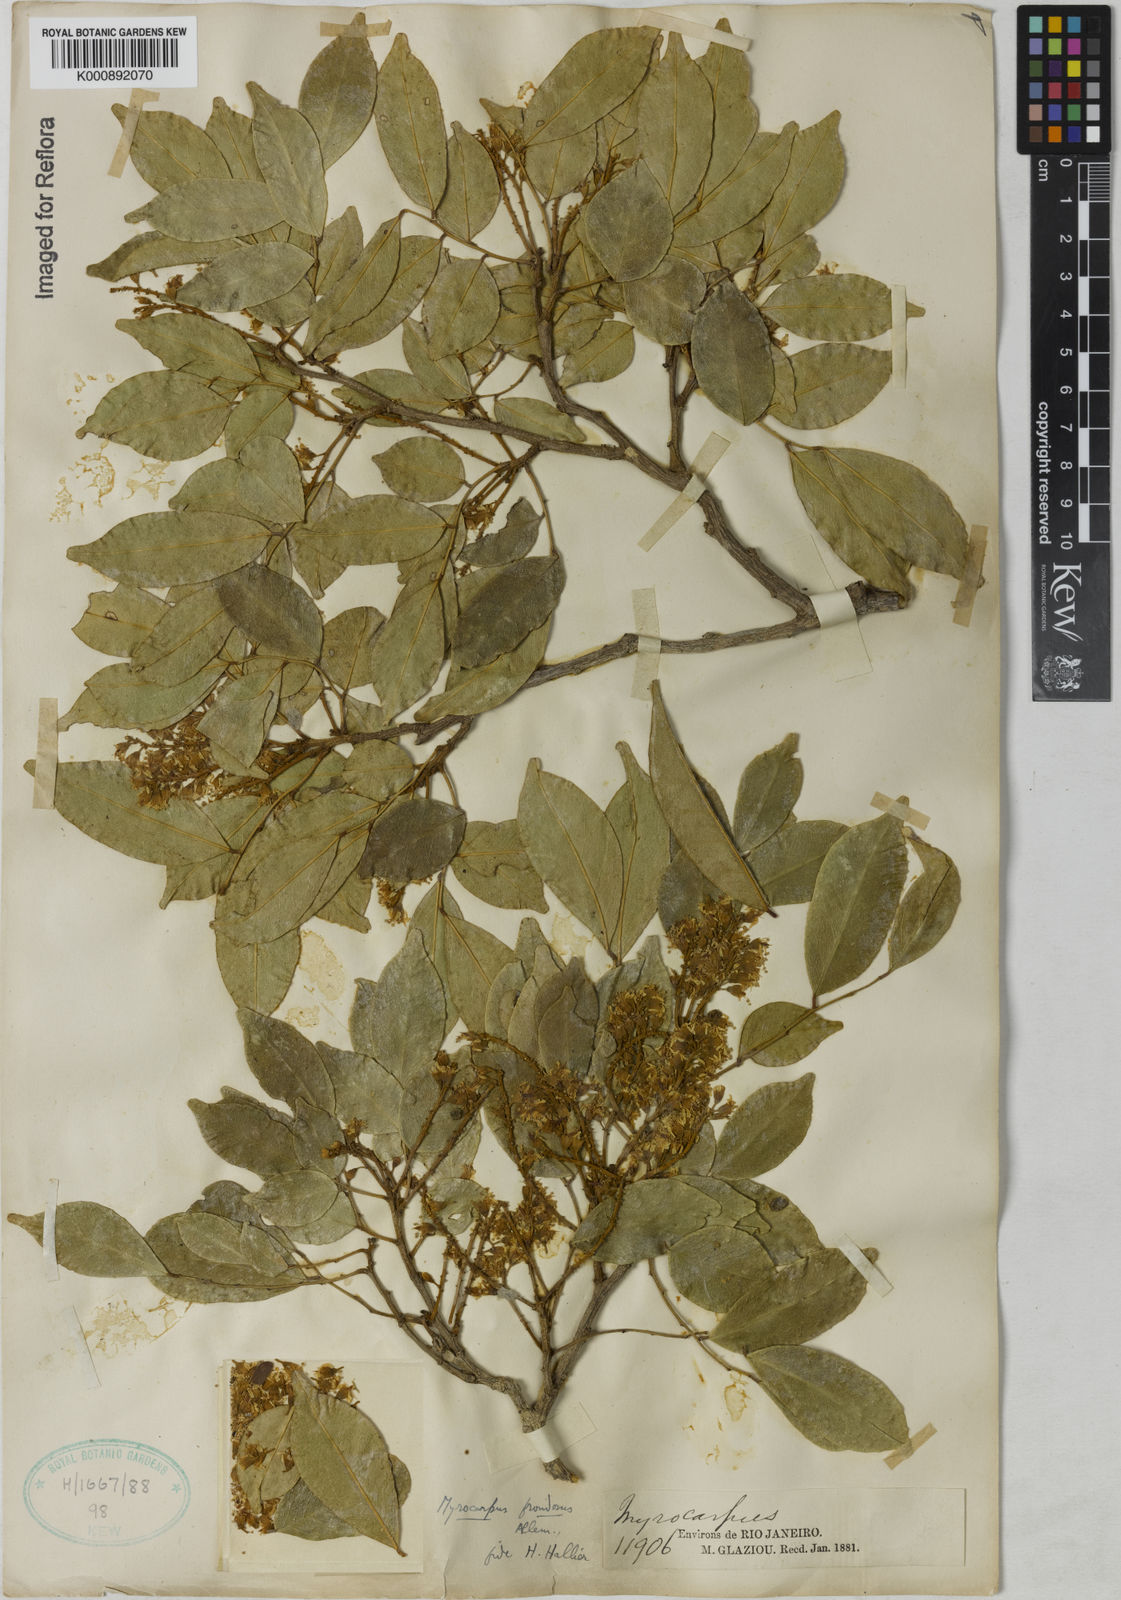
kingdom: Plantae
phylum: Tracheophyta
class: Magnoliopsida
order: Fabales
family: Fabaceae
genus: Myrocarpus
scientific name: Myrocarpus
